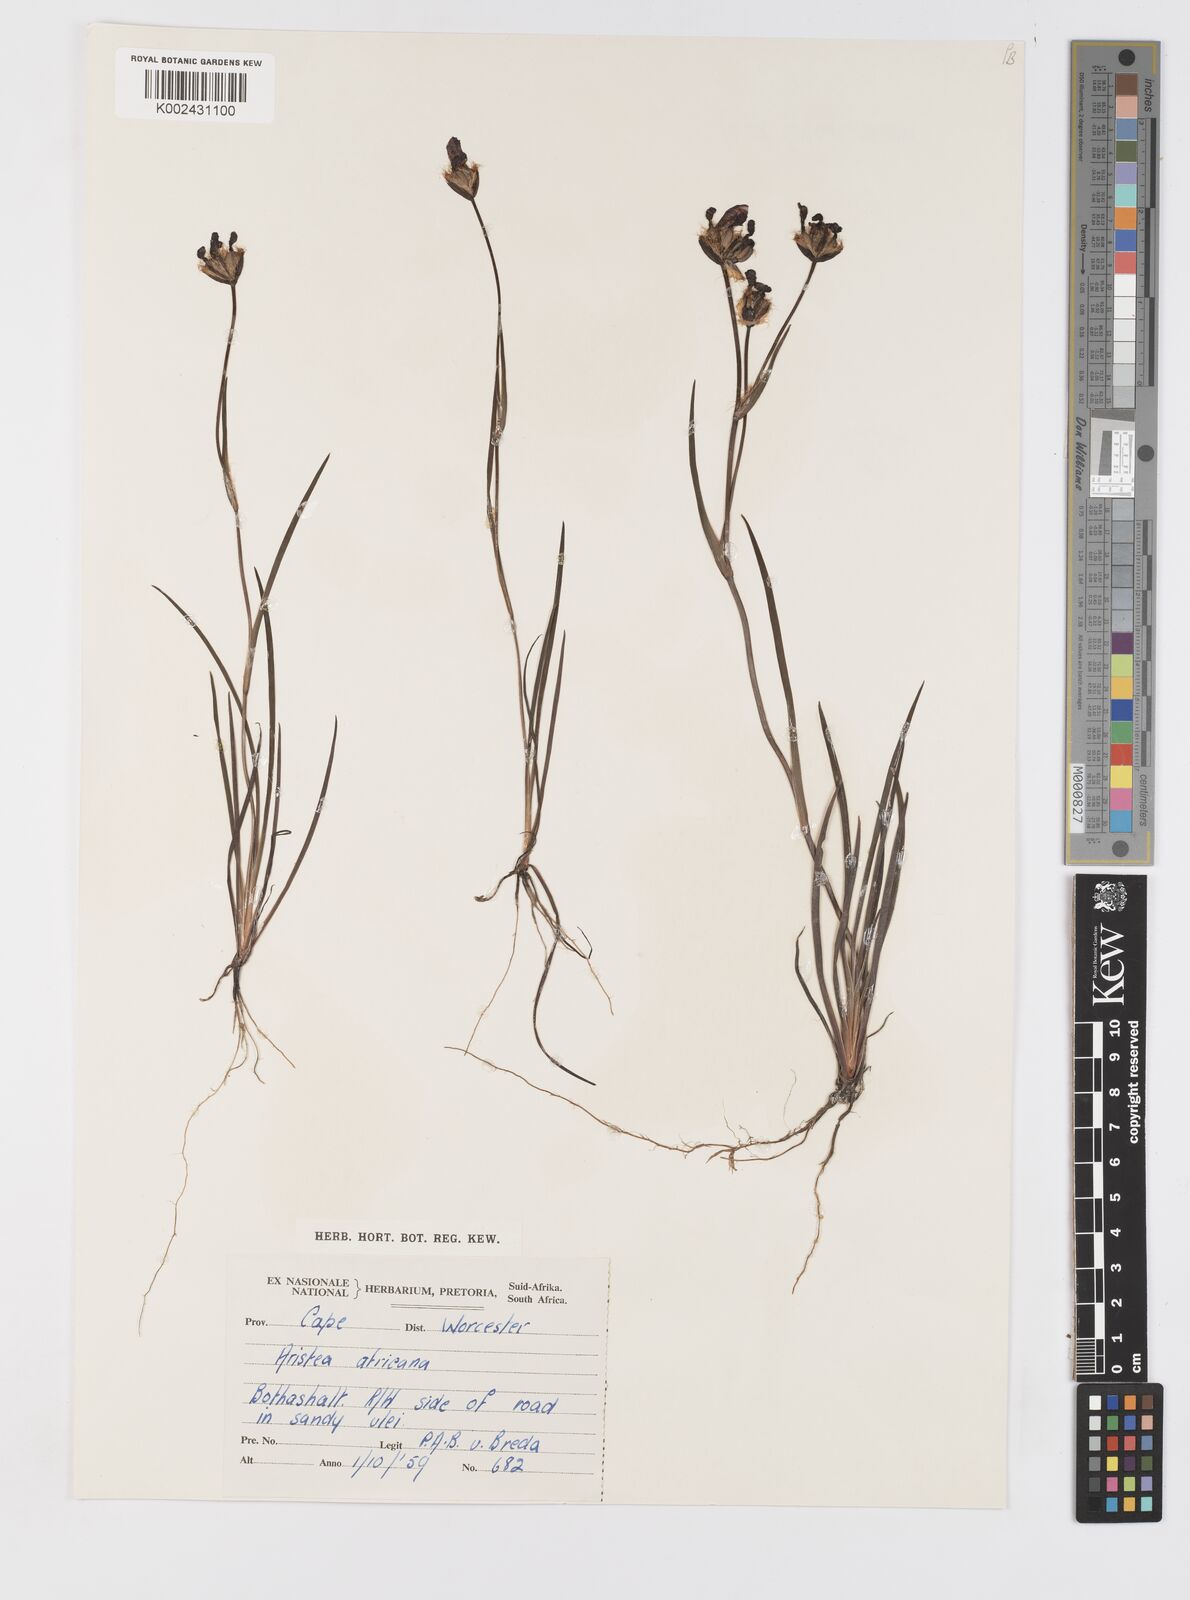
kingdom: Plantae
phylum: Tracheophyta
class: Liliopsida
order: Asparagales
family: Iridaceae
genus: Aristea
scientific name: Aristea africana
